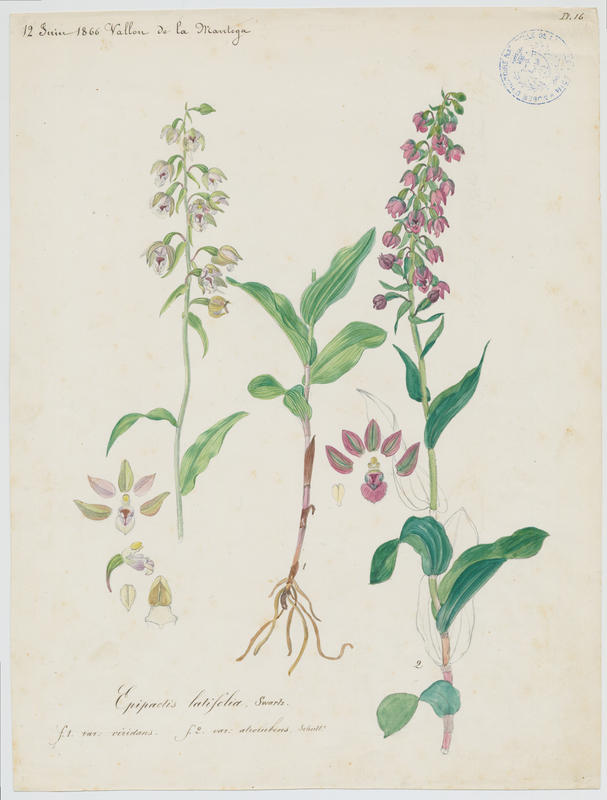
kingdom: Plantae
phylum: Tracheophyta
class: Liliopsida
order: Asparagales
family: Orchidaceae
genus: Epipactis
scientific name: Epipactis helleborine
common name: Broad-leaved helleborine
